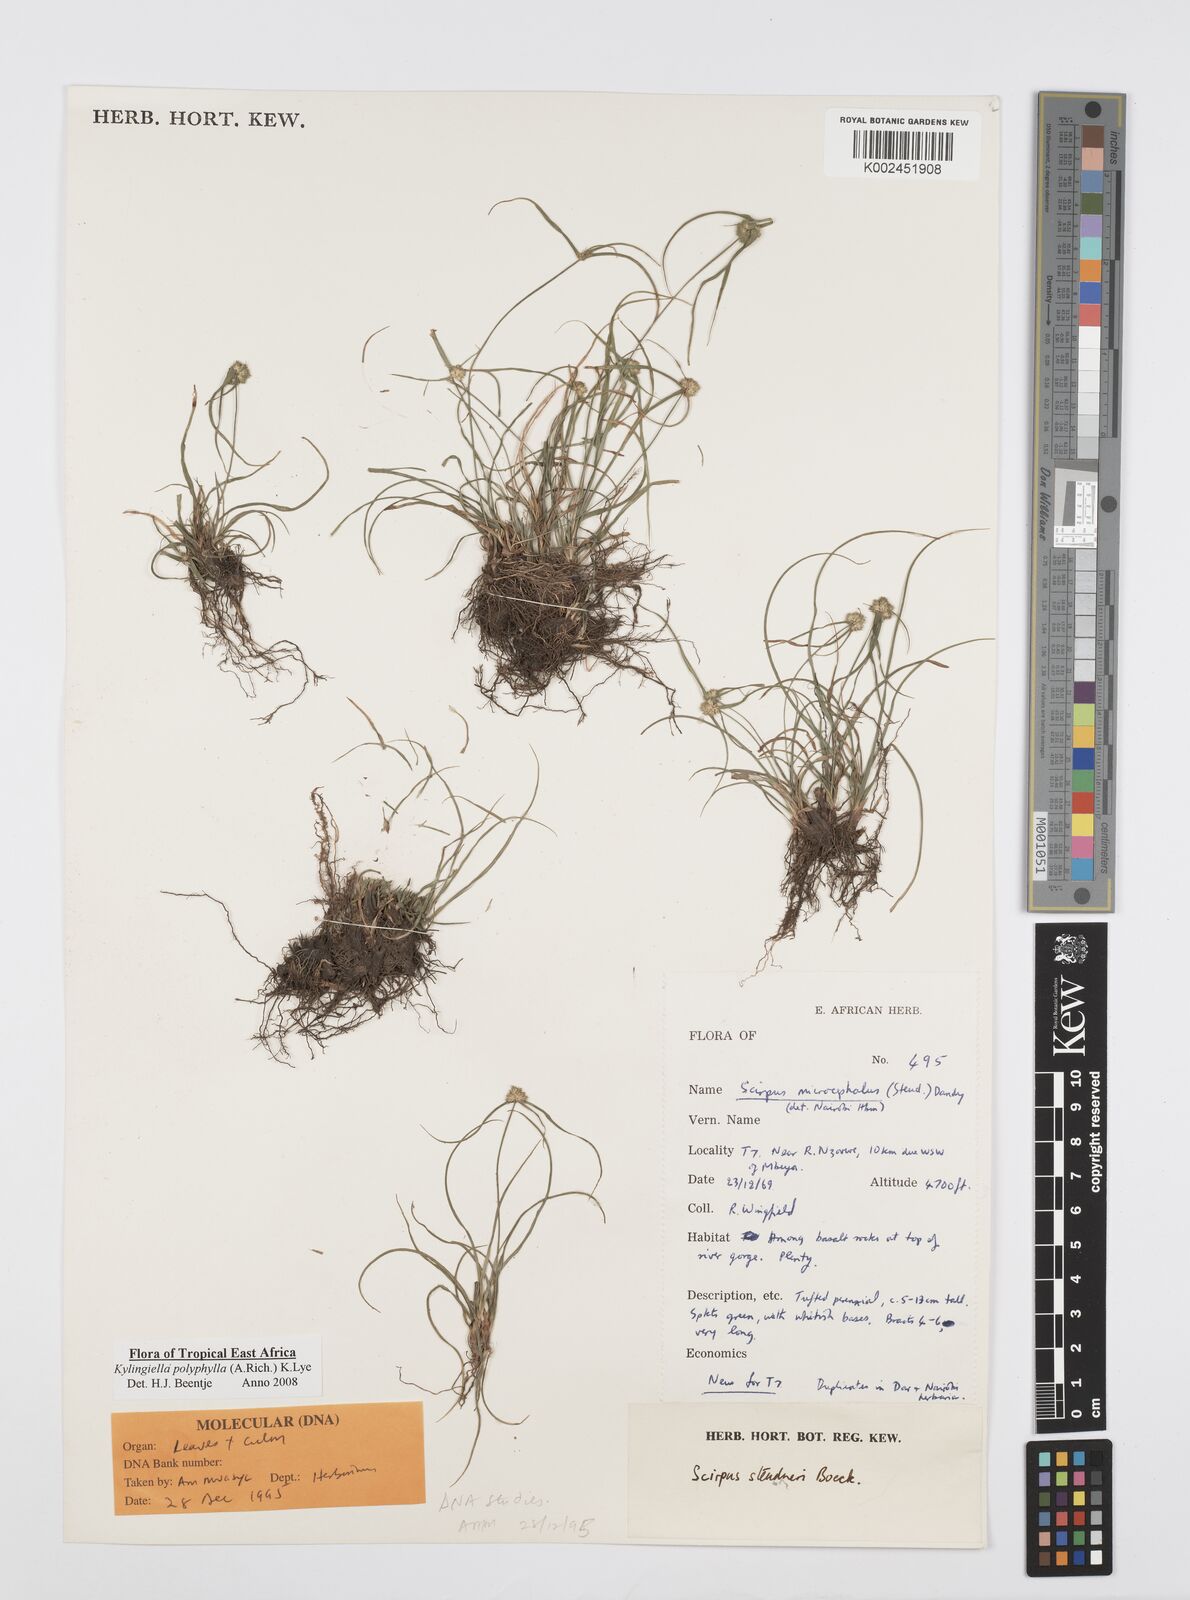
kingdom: Plantae
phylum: Tracheophyta
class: Liliopsida
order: Poales
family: Cyperaceae
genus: Cyperus
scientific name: Cyperus bulbosus
